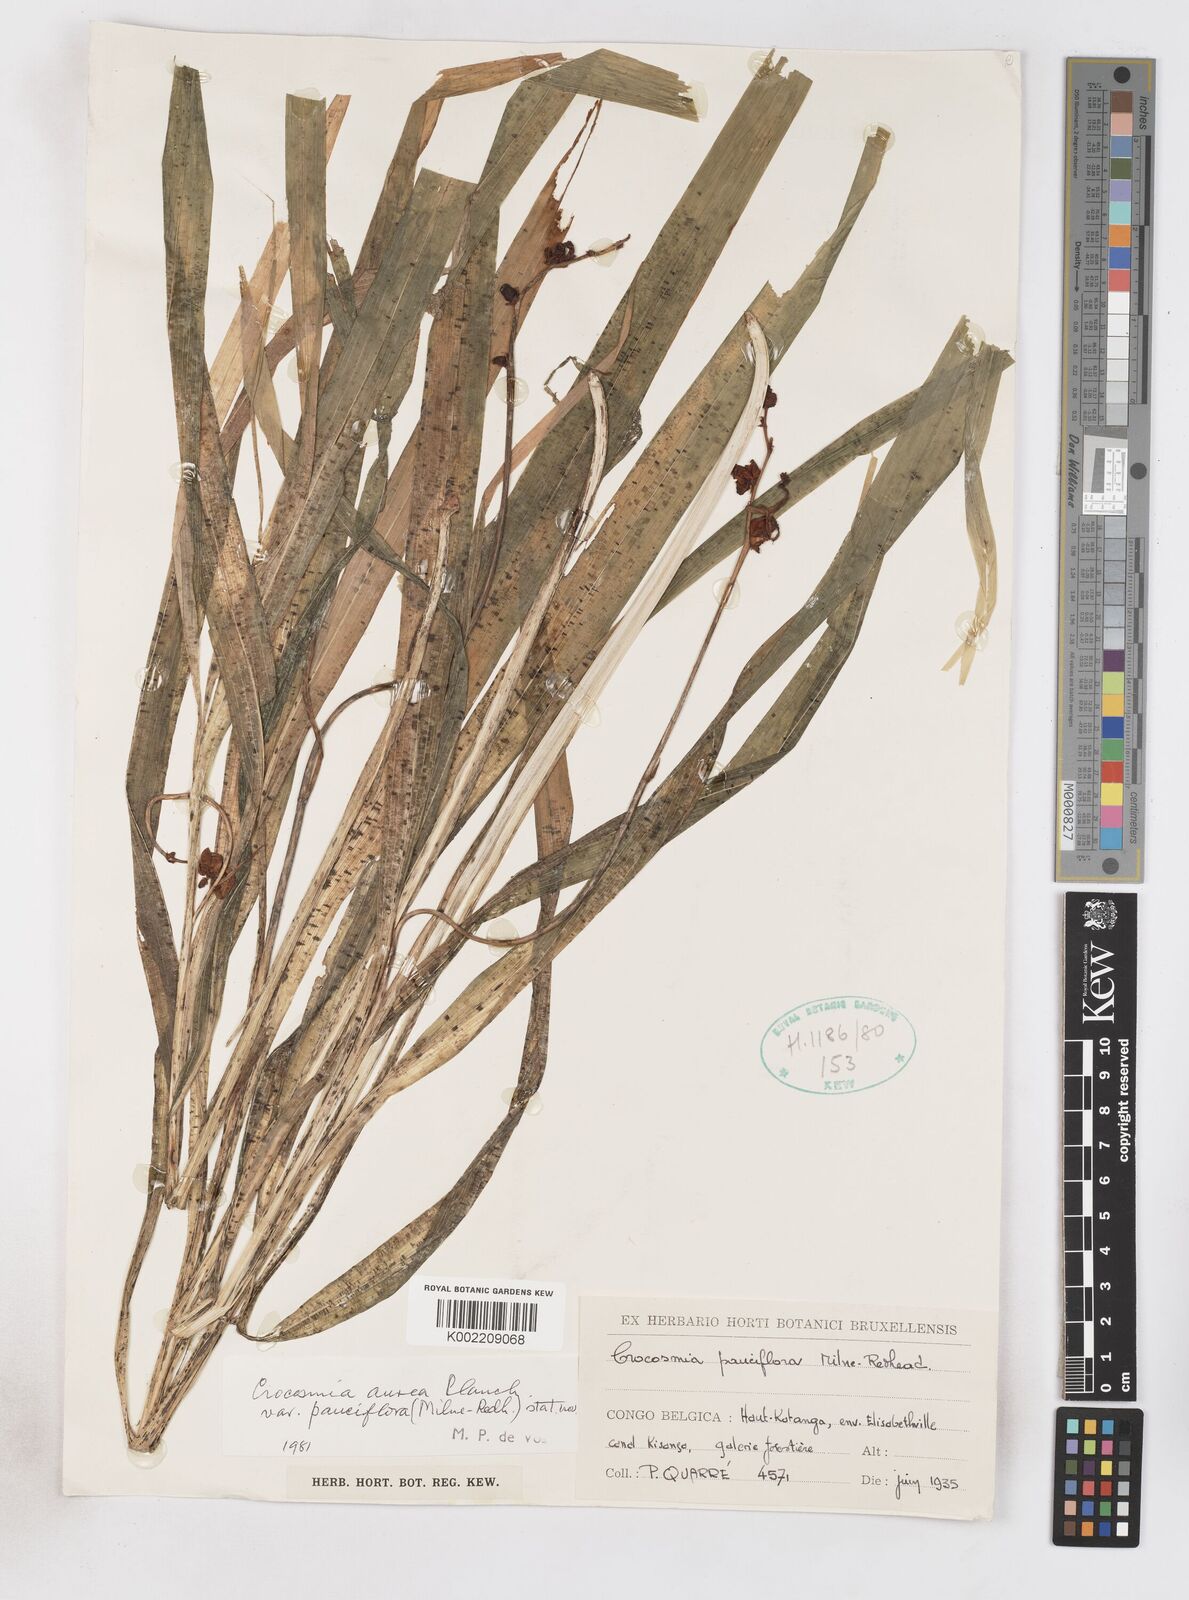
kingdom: Plantae
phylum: Tracheophyta
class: Liliopsida
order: Asparagales
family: Iridaceae
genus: Crocosmia
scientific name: Crocosmia aurea
